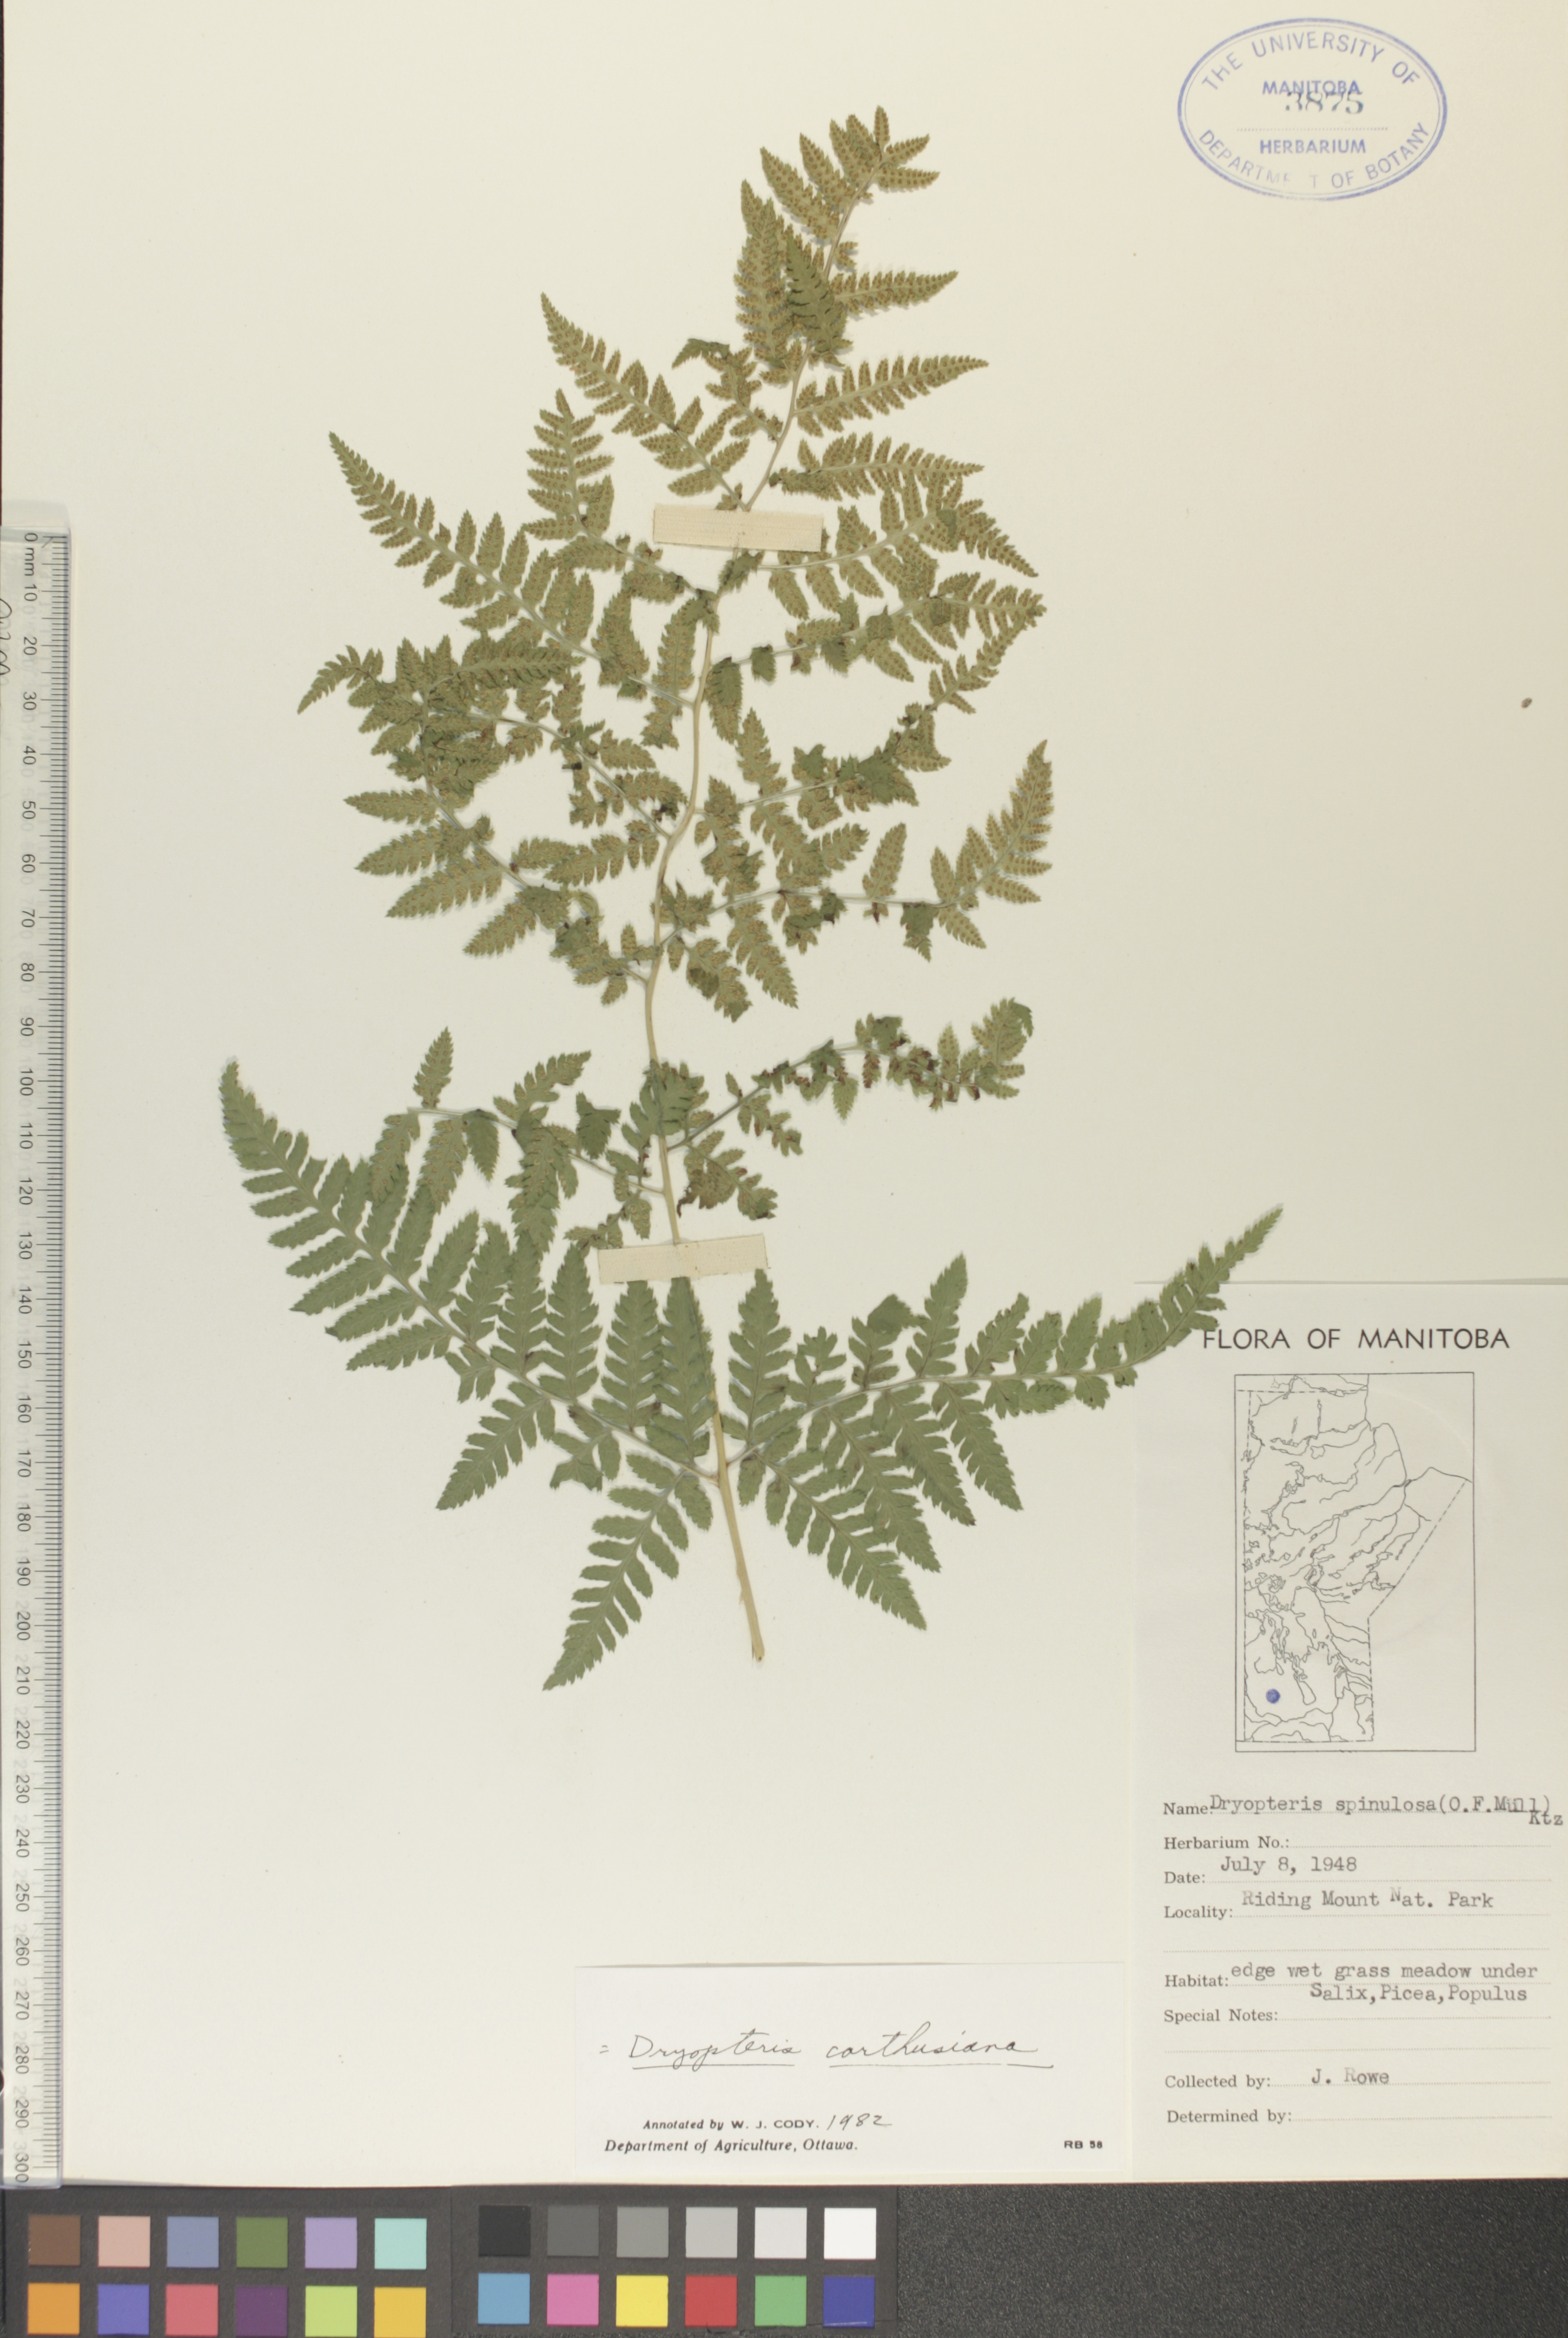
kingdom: Plantae
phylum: Tracheophyta
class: Polypodiopsida
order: Polypodiales
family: Dryopteridaceae
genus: Dryopteris
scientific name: Dryopteris carthusiana
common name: Narrow buckler-fern
